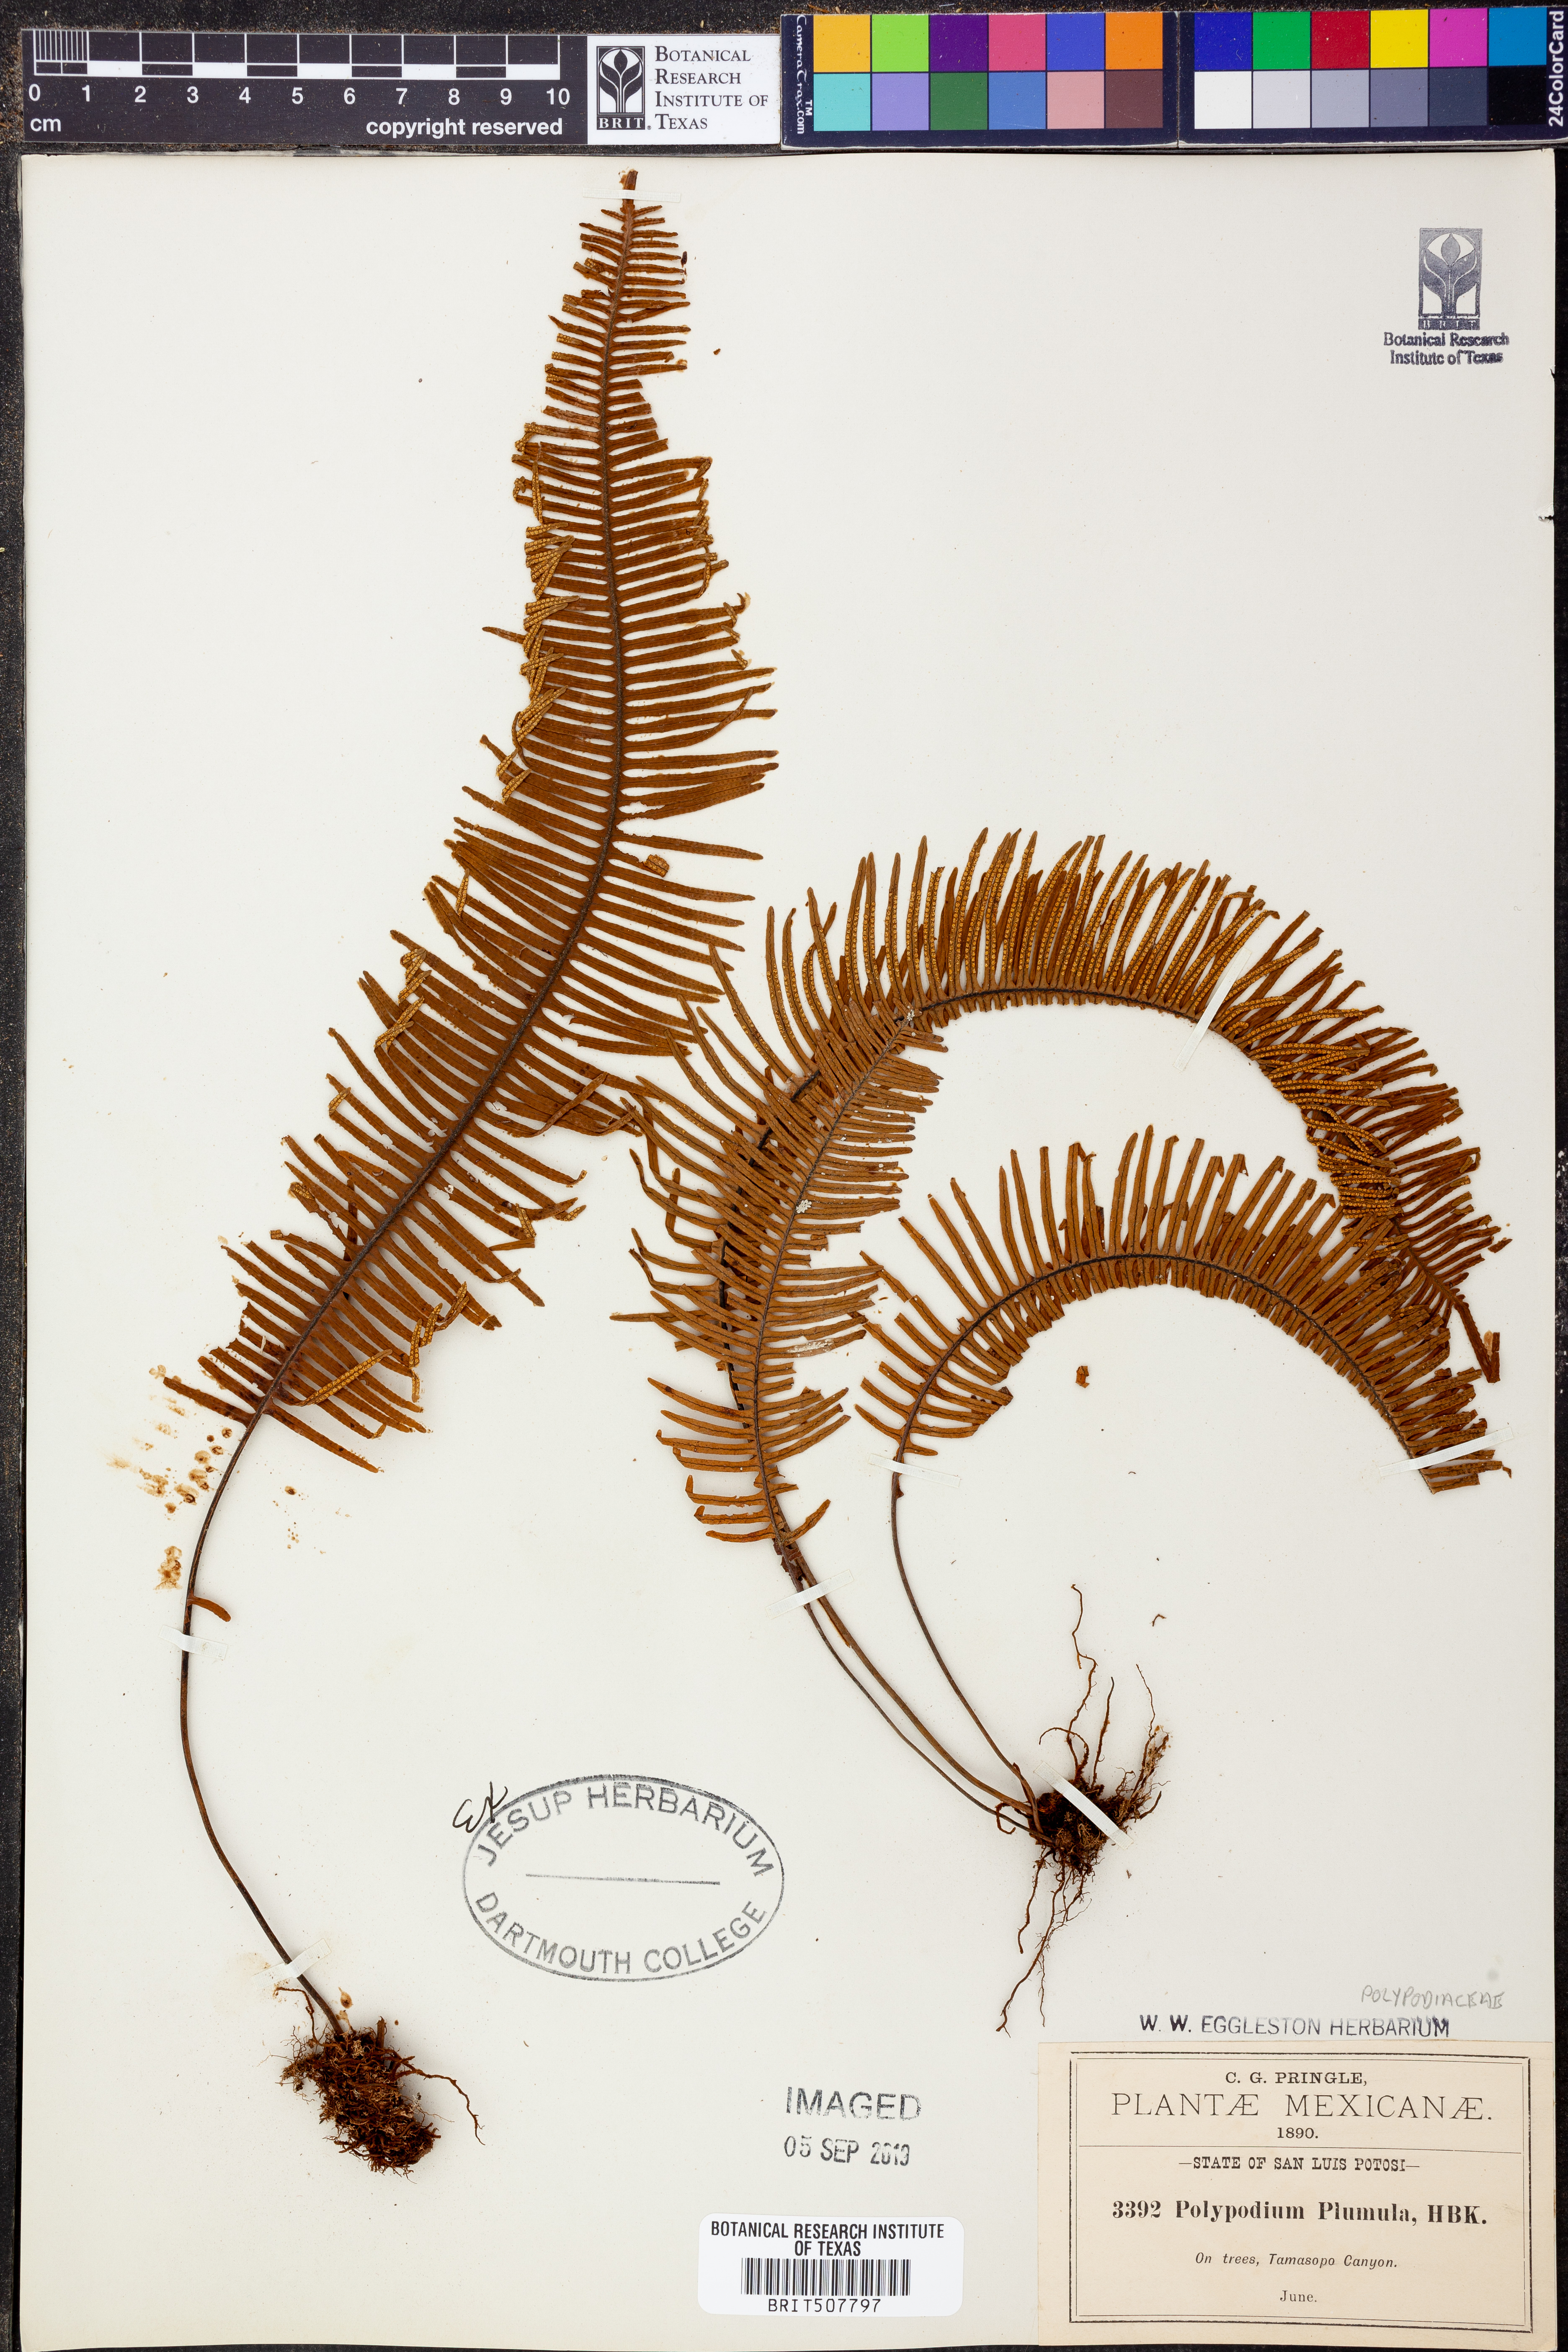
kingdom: Plantae
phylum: Tracheophyta
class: Polypodiopsida
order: Polypodiales
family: Polypodiaceae
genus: Pecluma
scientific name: Pecluma plumula
